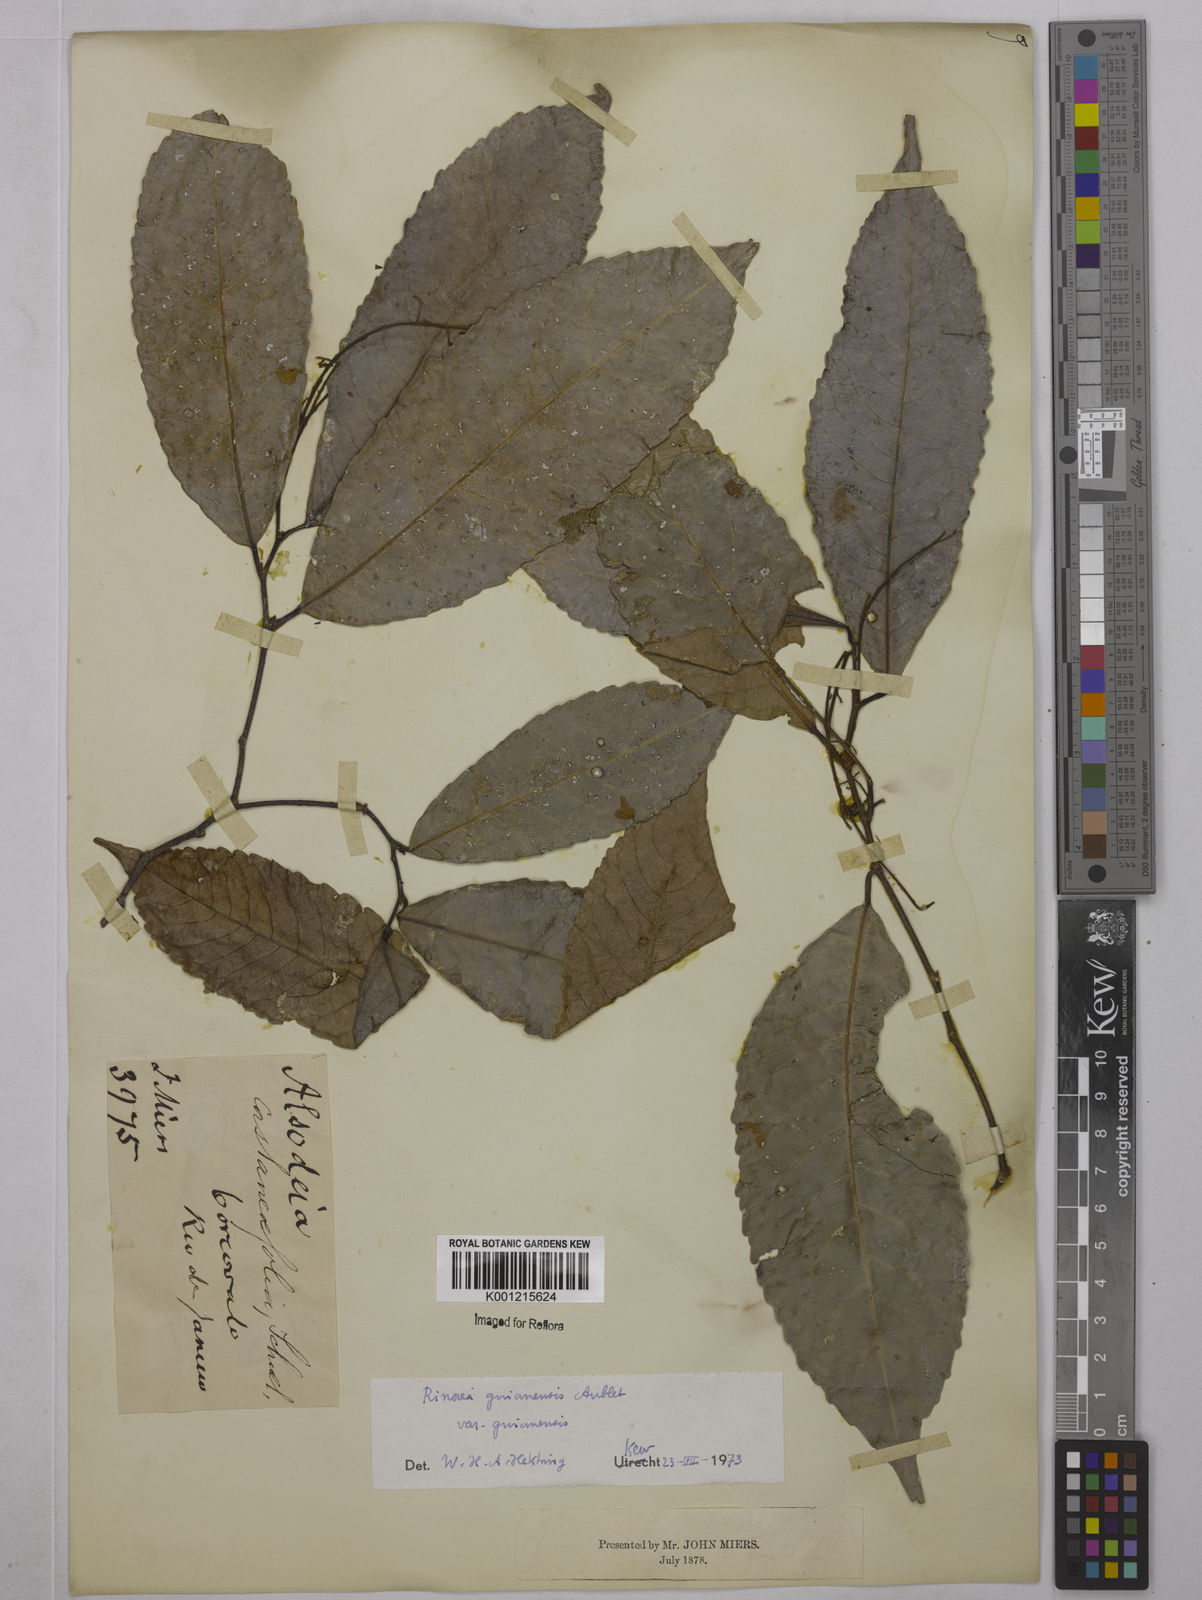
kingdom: Plantae
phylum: Tracheophyta
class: Magnoliopsida
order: Malpighiales
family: Violaceae
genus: Rinorea
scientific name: Rinorea guianensis
